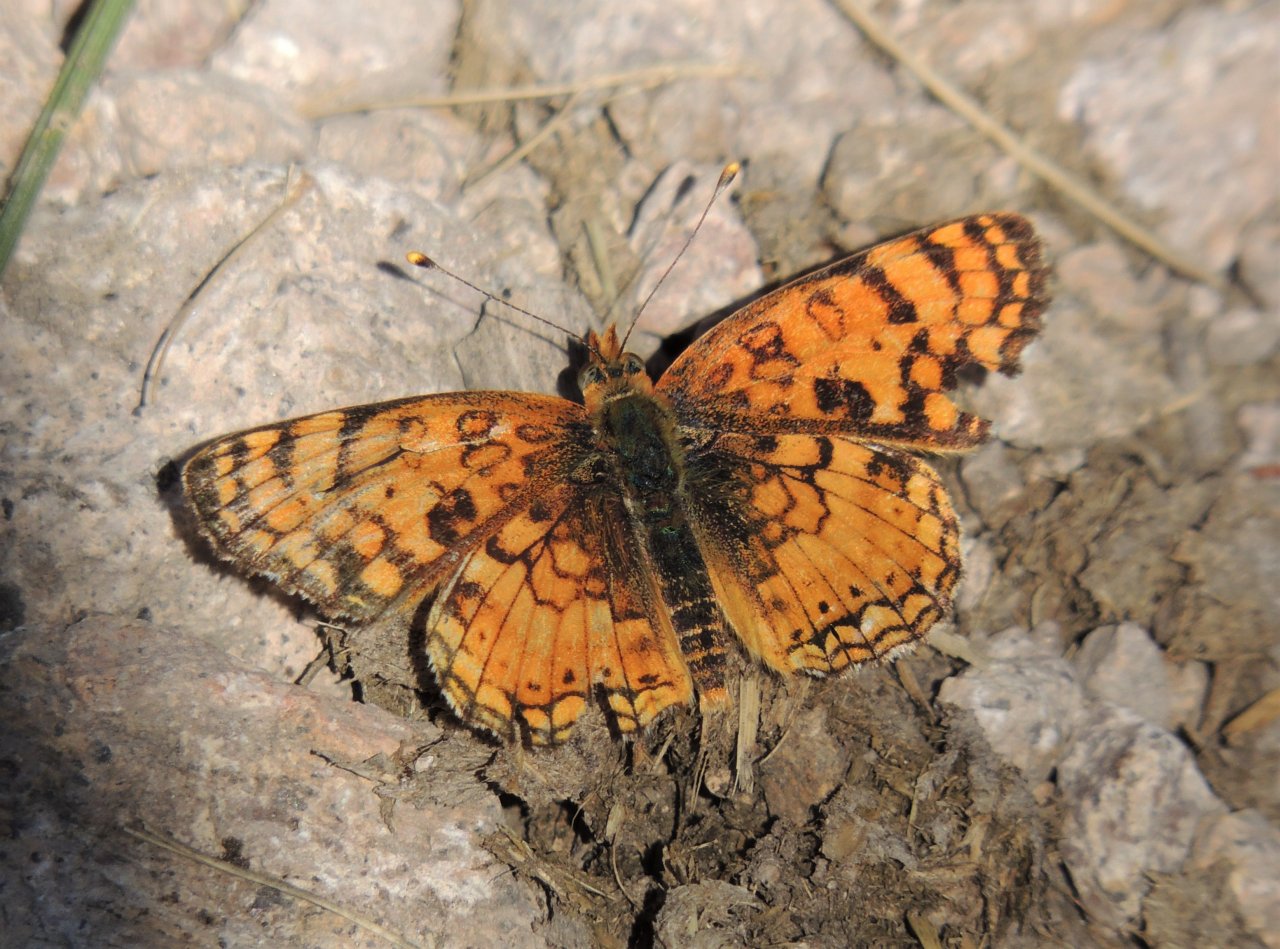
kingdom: Animalia
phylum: Arthropoda
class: Insecta
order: Lepidoptera
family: Nymphalidae
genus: Phyciodes
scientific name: Phyciodes pallida
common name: Pale Crescent
